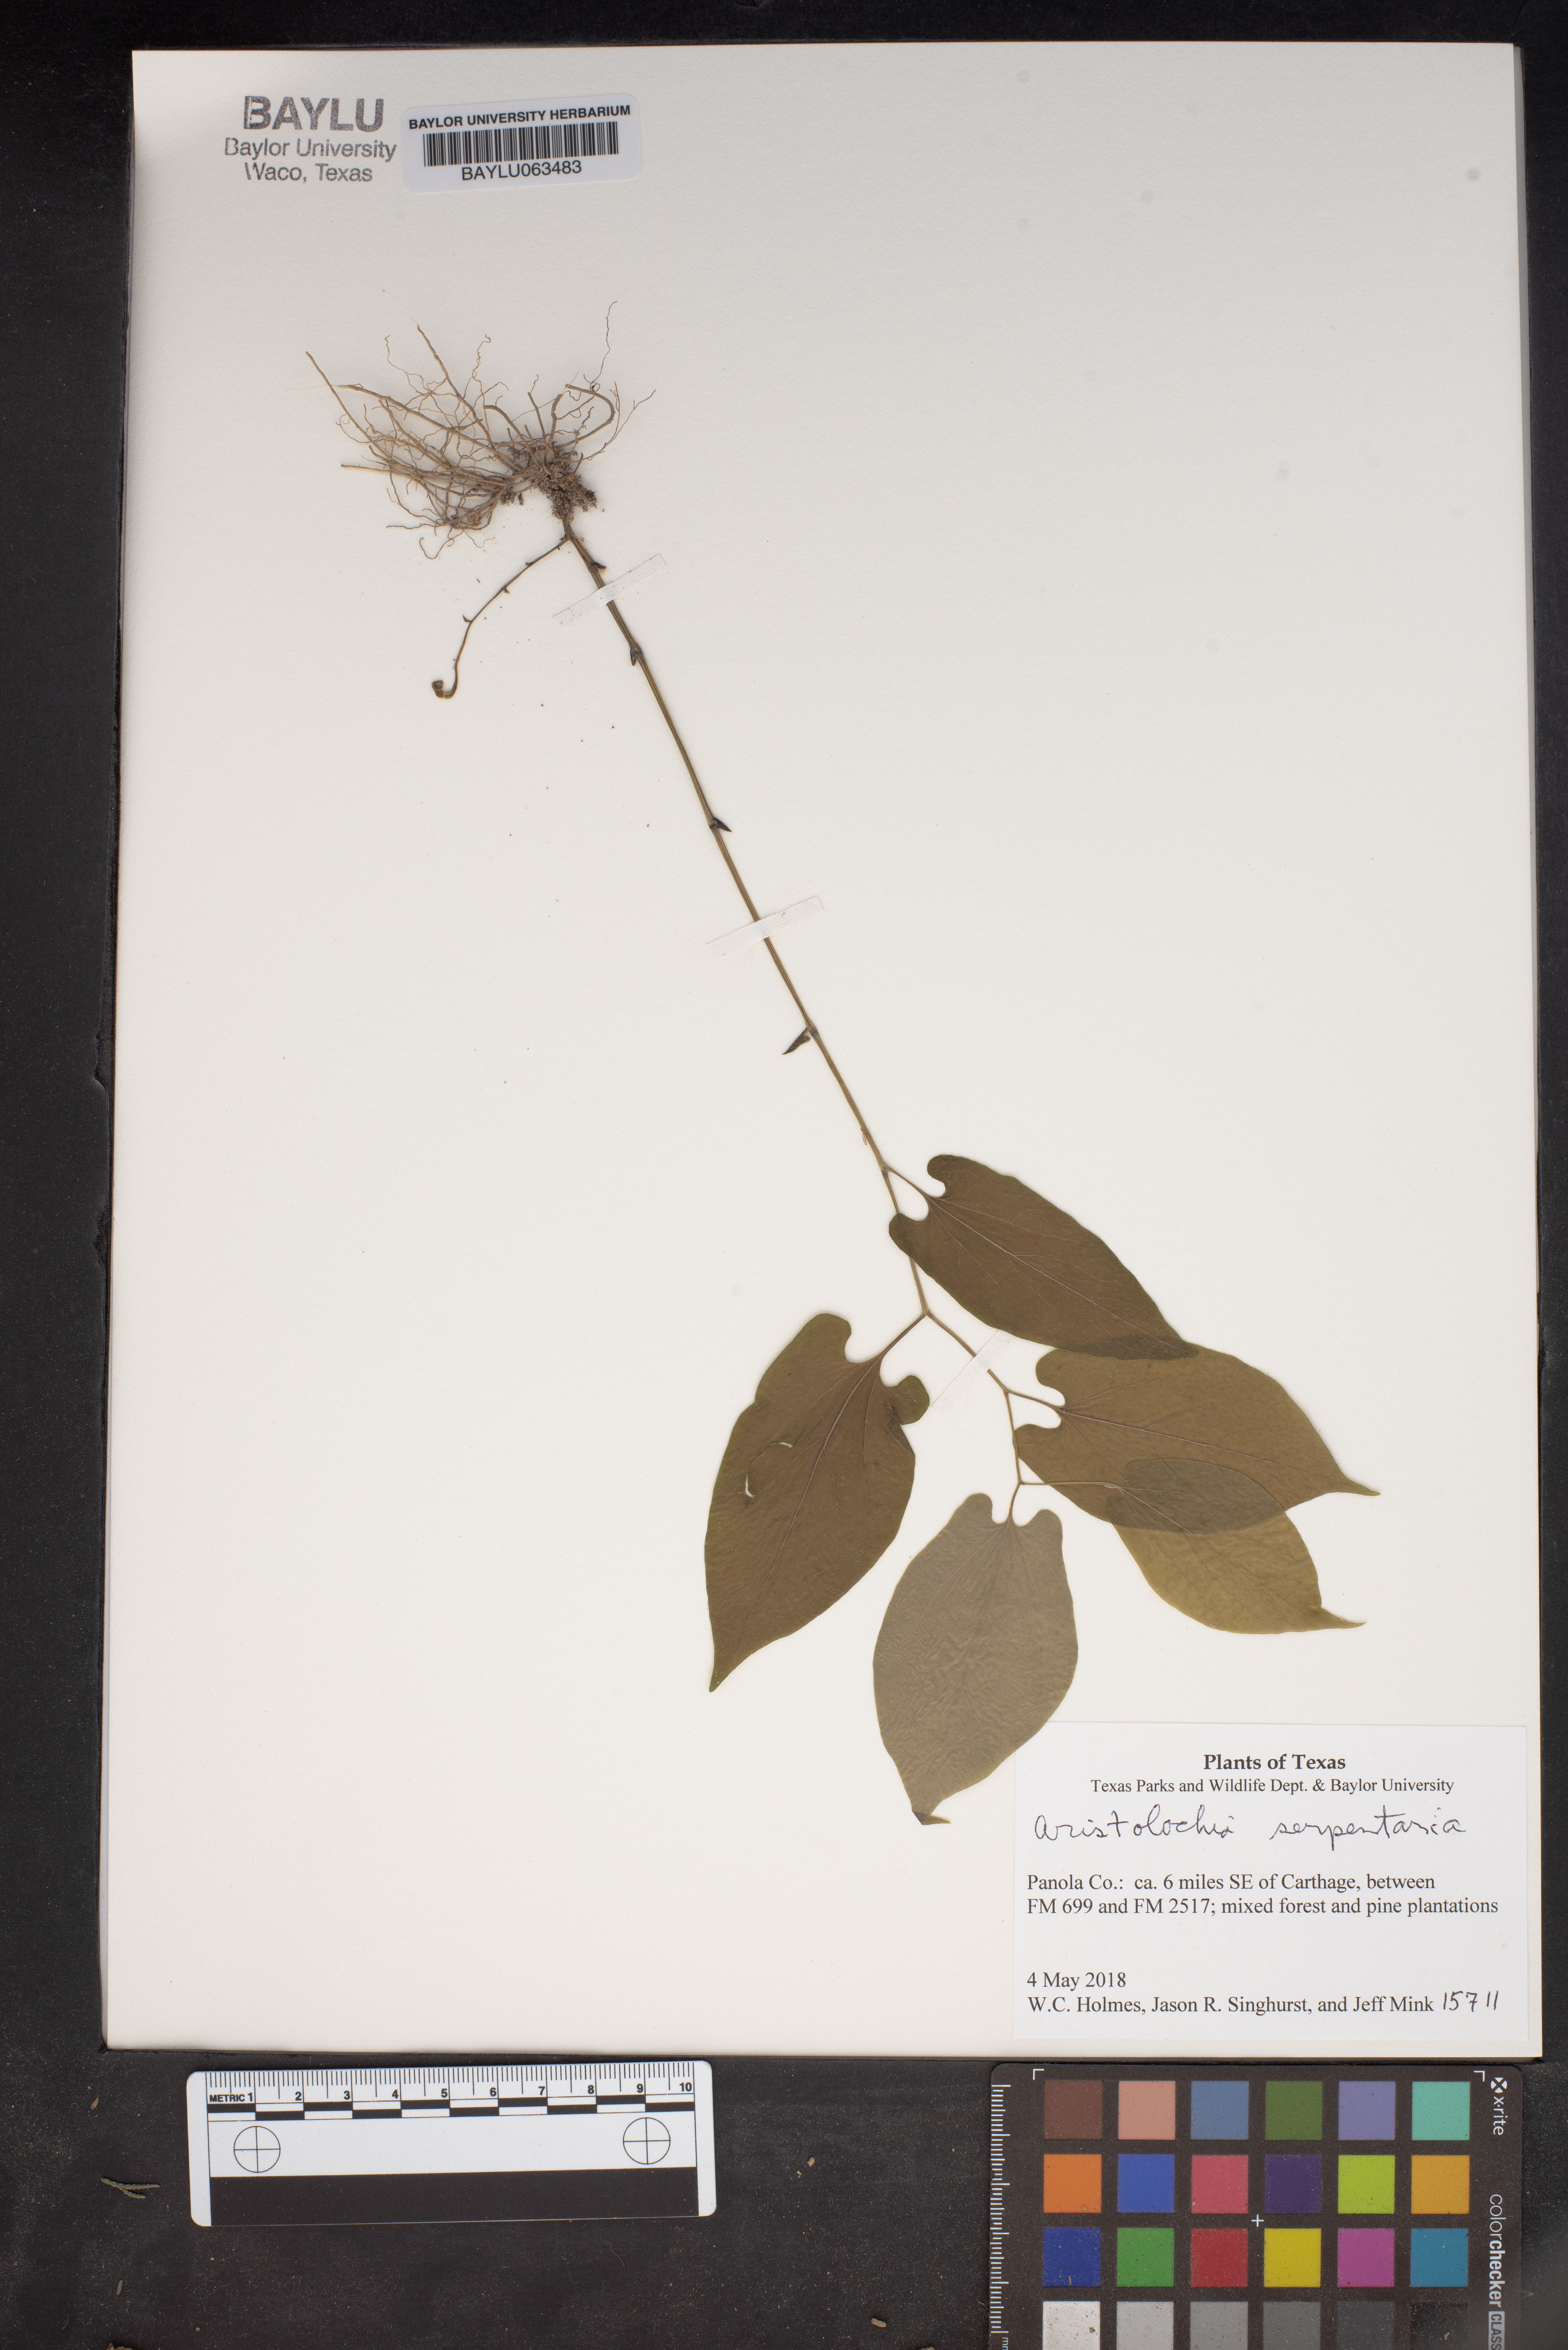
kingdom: Plantae
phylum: Tracheophyta
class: Magnoliopsida
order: Piperales
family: Aristolochiaceae
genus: Endodeca
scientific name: Endodeca serpentaria
